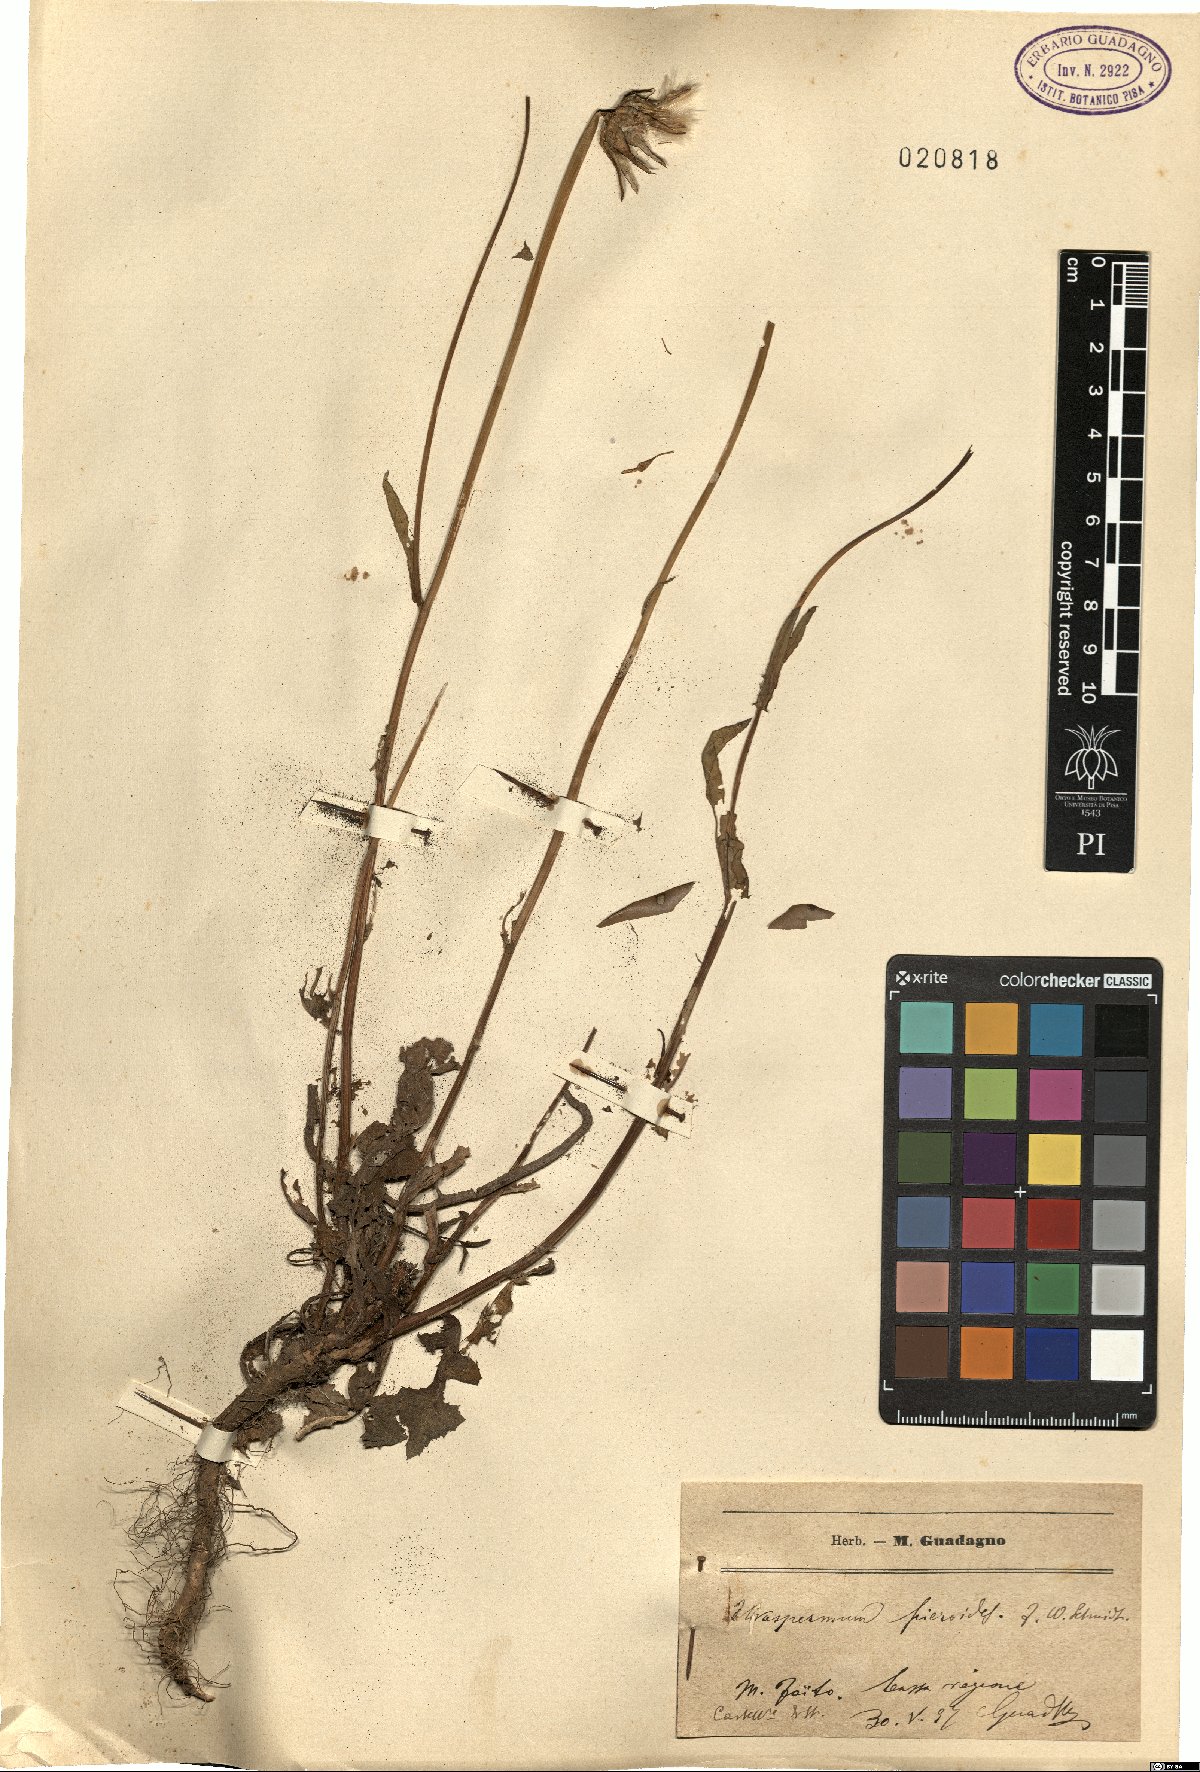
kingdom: Plantae
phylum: Tracheophyta
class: Magnoliopsida
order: Asterales
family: Asteraceae
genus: Urospermum
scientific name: Urospermum picroides
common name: False hawkbit
